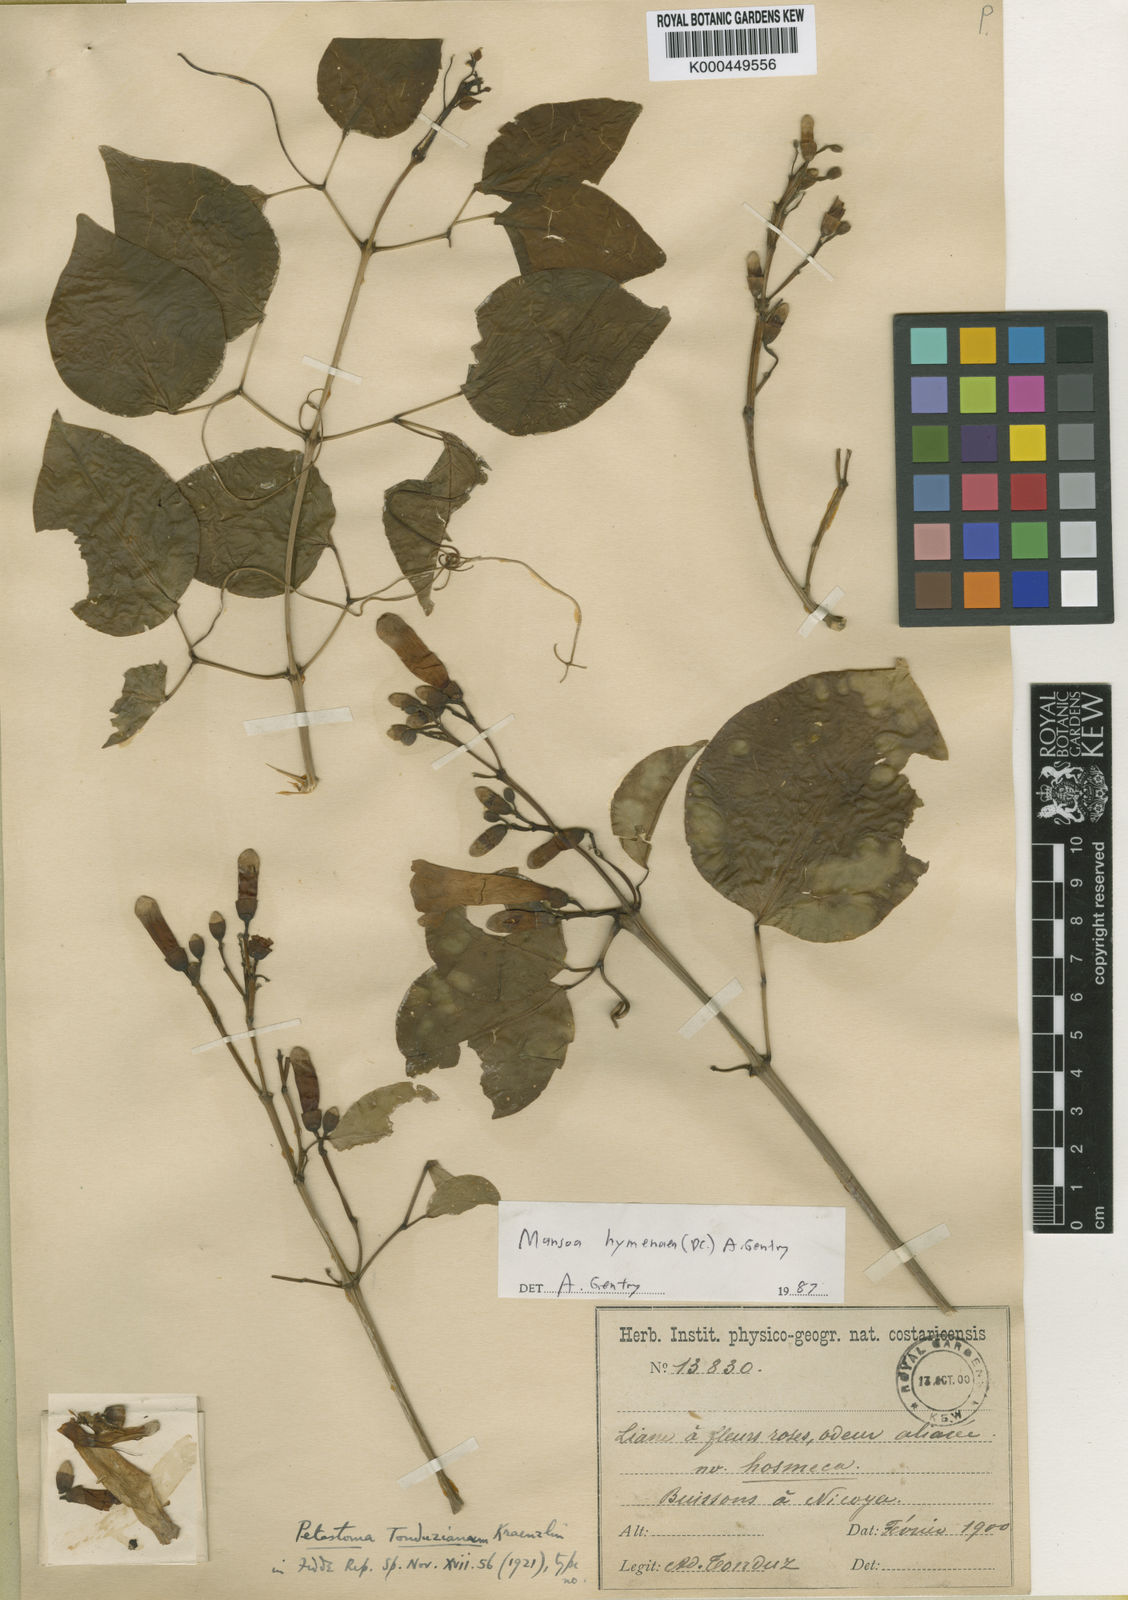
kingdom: Plantae
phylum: Tracheophyta
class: Magnoliopsida
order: Lamiales
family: Bignoniaceae
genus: Mansoa
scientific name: Mansoa hymenaea
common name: Membranous garlic vine
